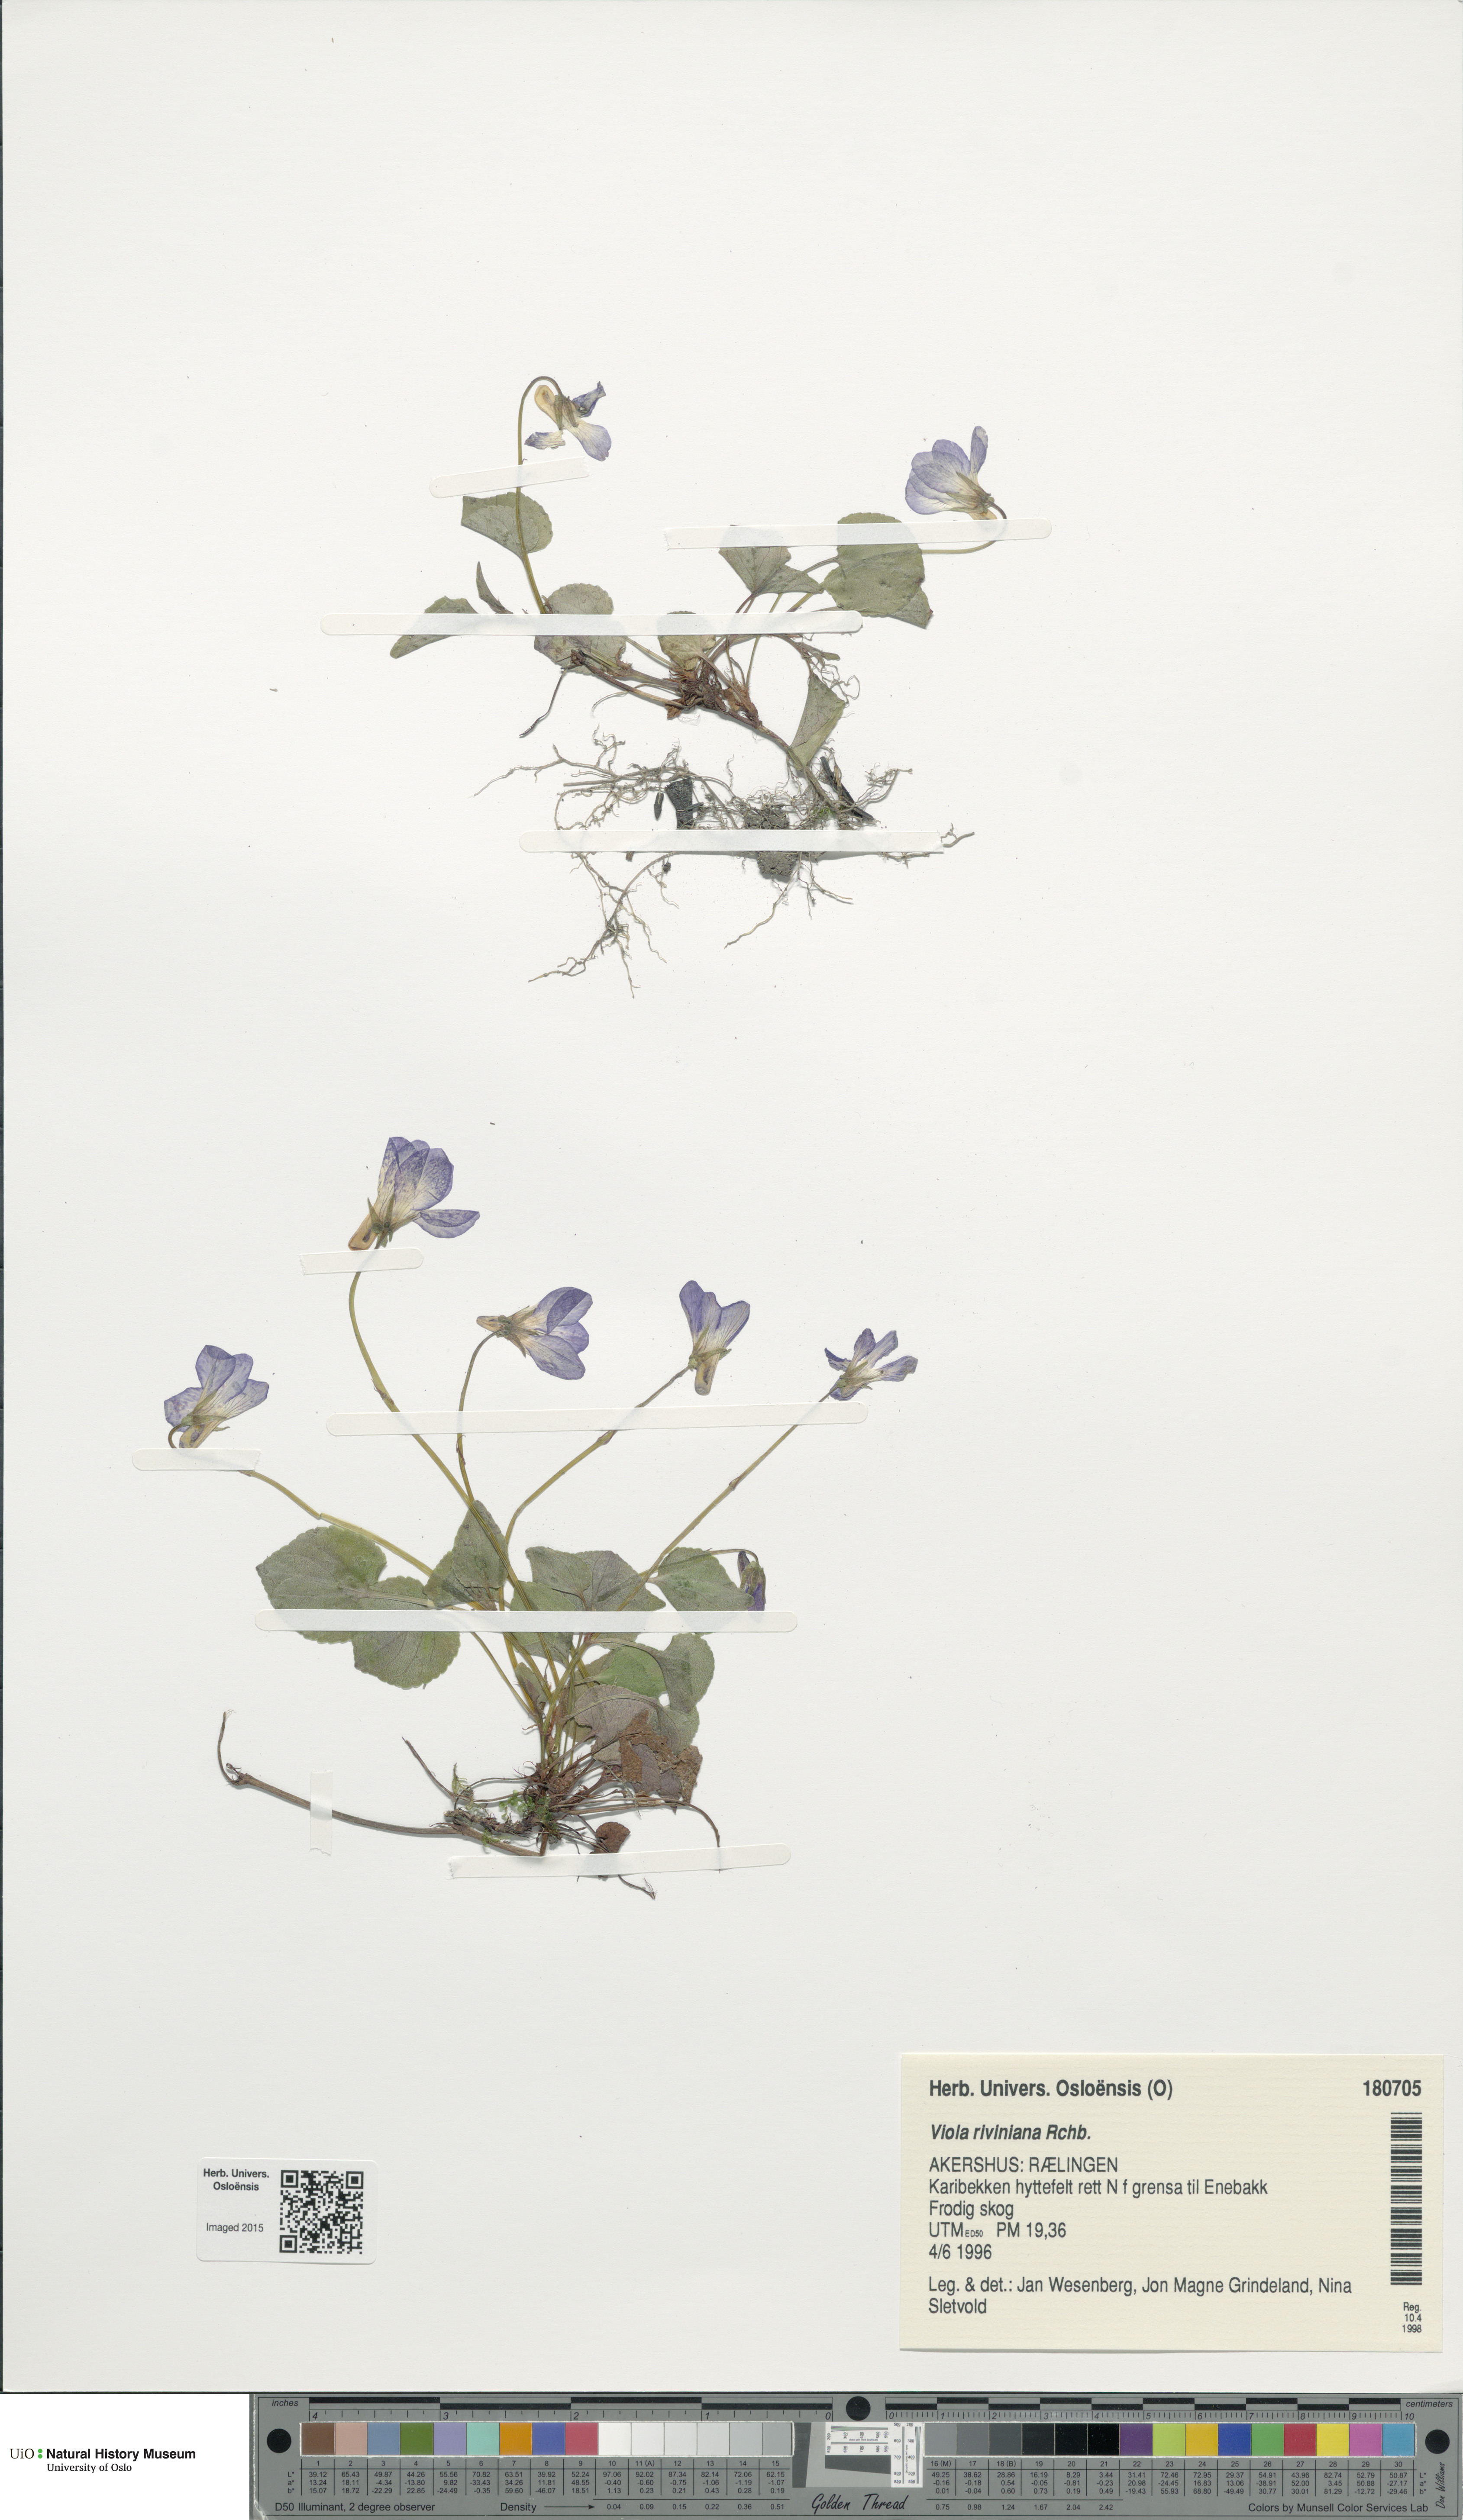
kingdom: Plantae
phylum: Tracheophyta
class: Magnoliopsida
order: Malpighiales
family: Violaceae
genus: Viola
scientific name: Viola riviniana
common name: Common dog-violet
